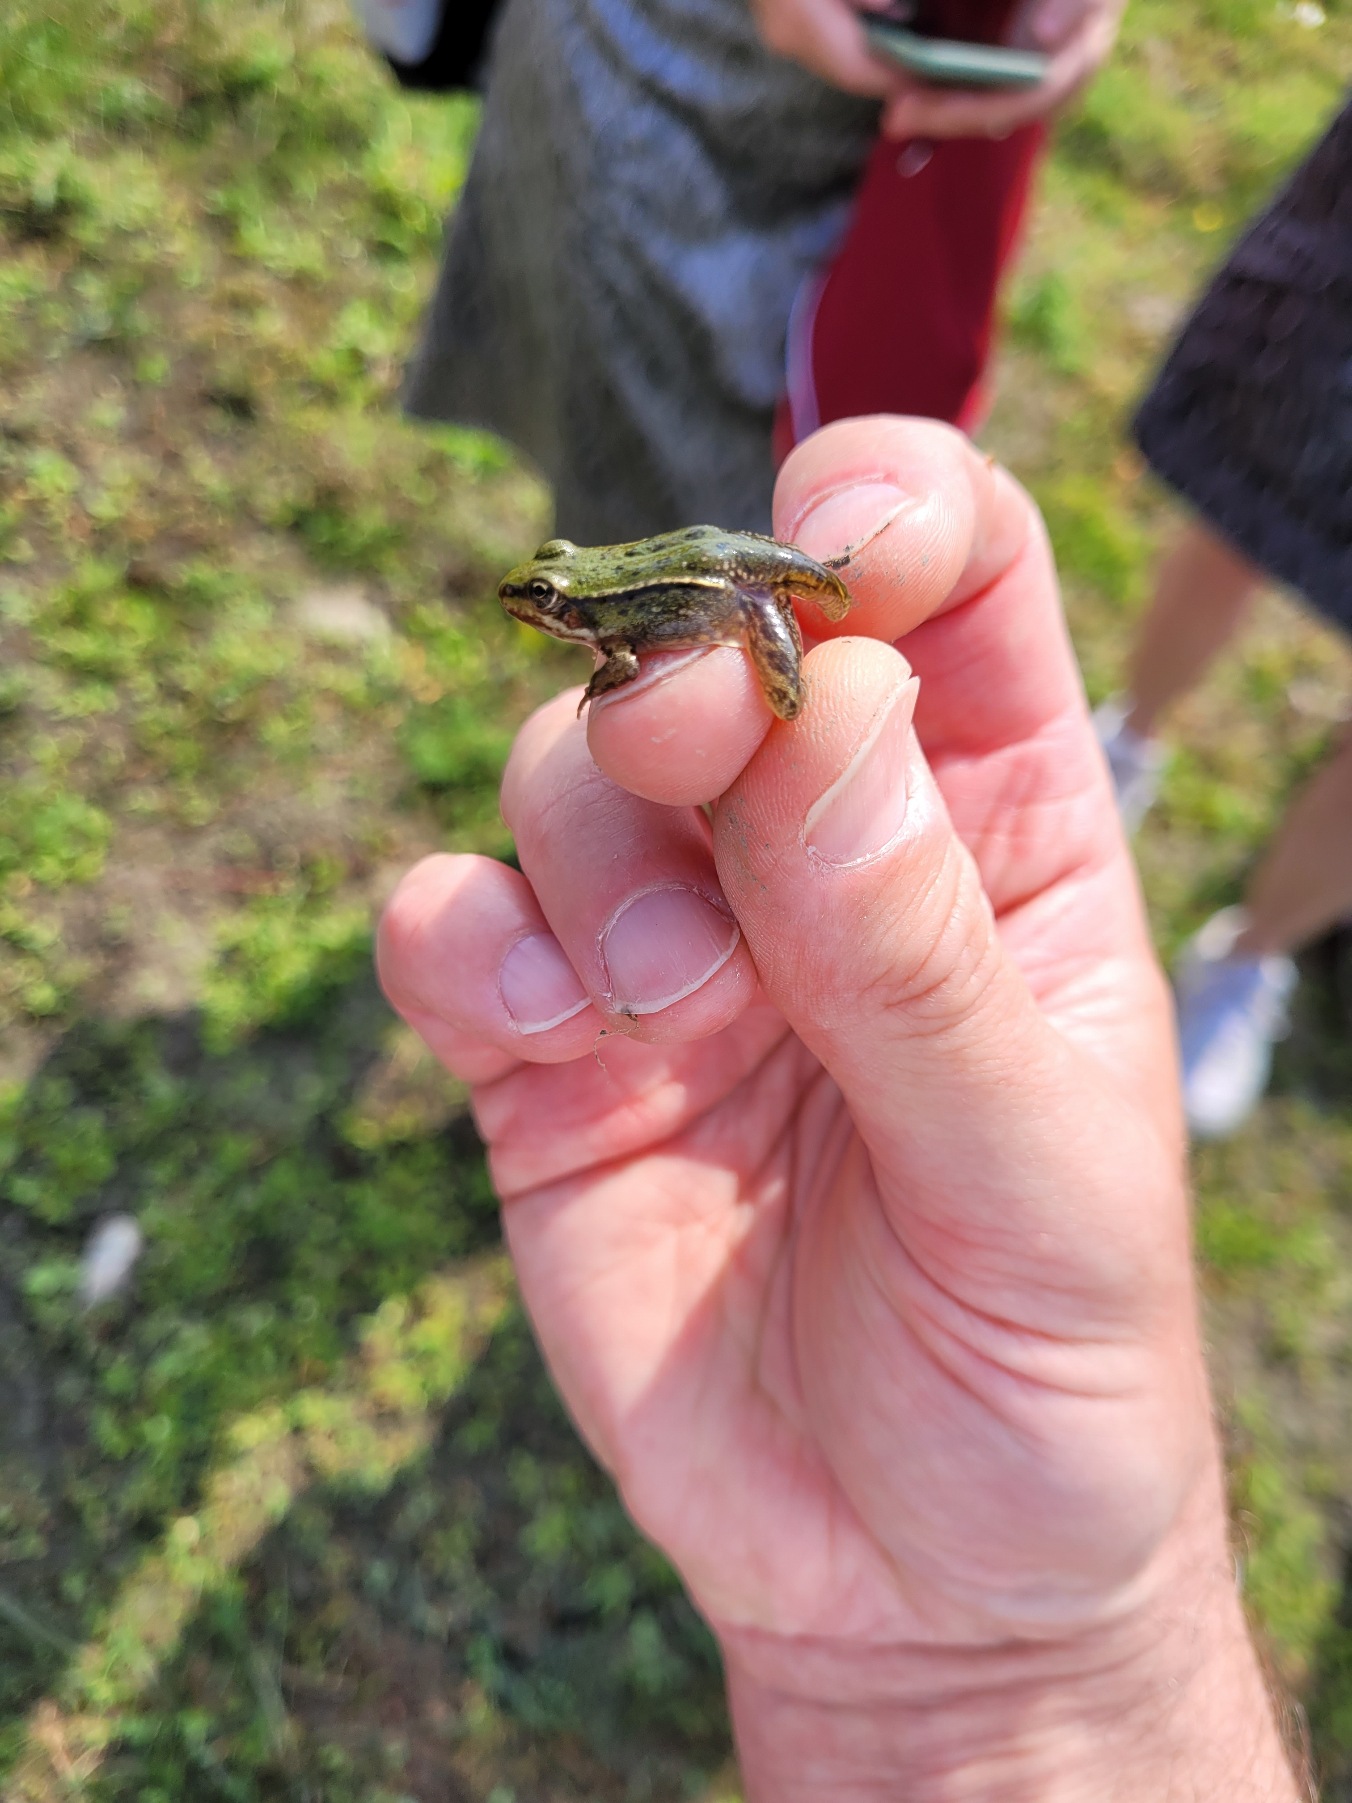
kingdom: Animalia
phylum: Chordata
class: Amphibia
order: Anura
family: Ranidae
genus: Pelophylax
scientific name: Pelophylax lessonae
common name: Grøn frø
